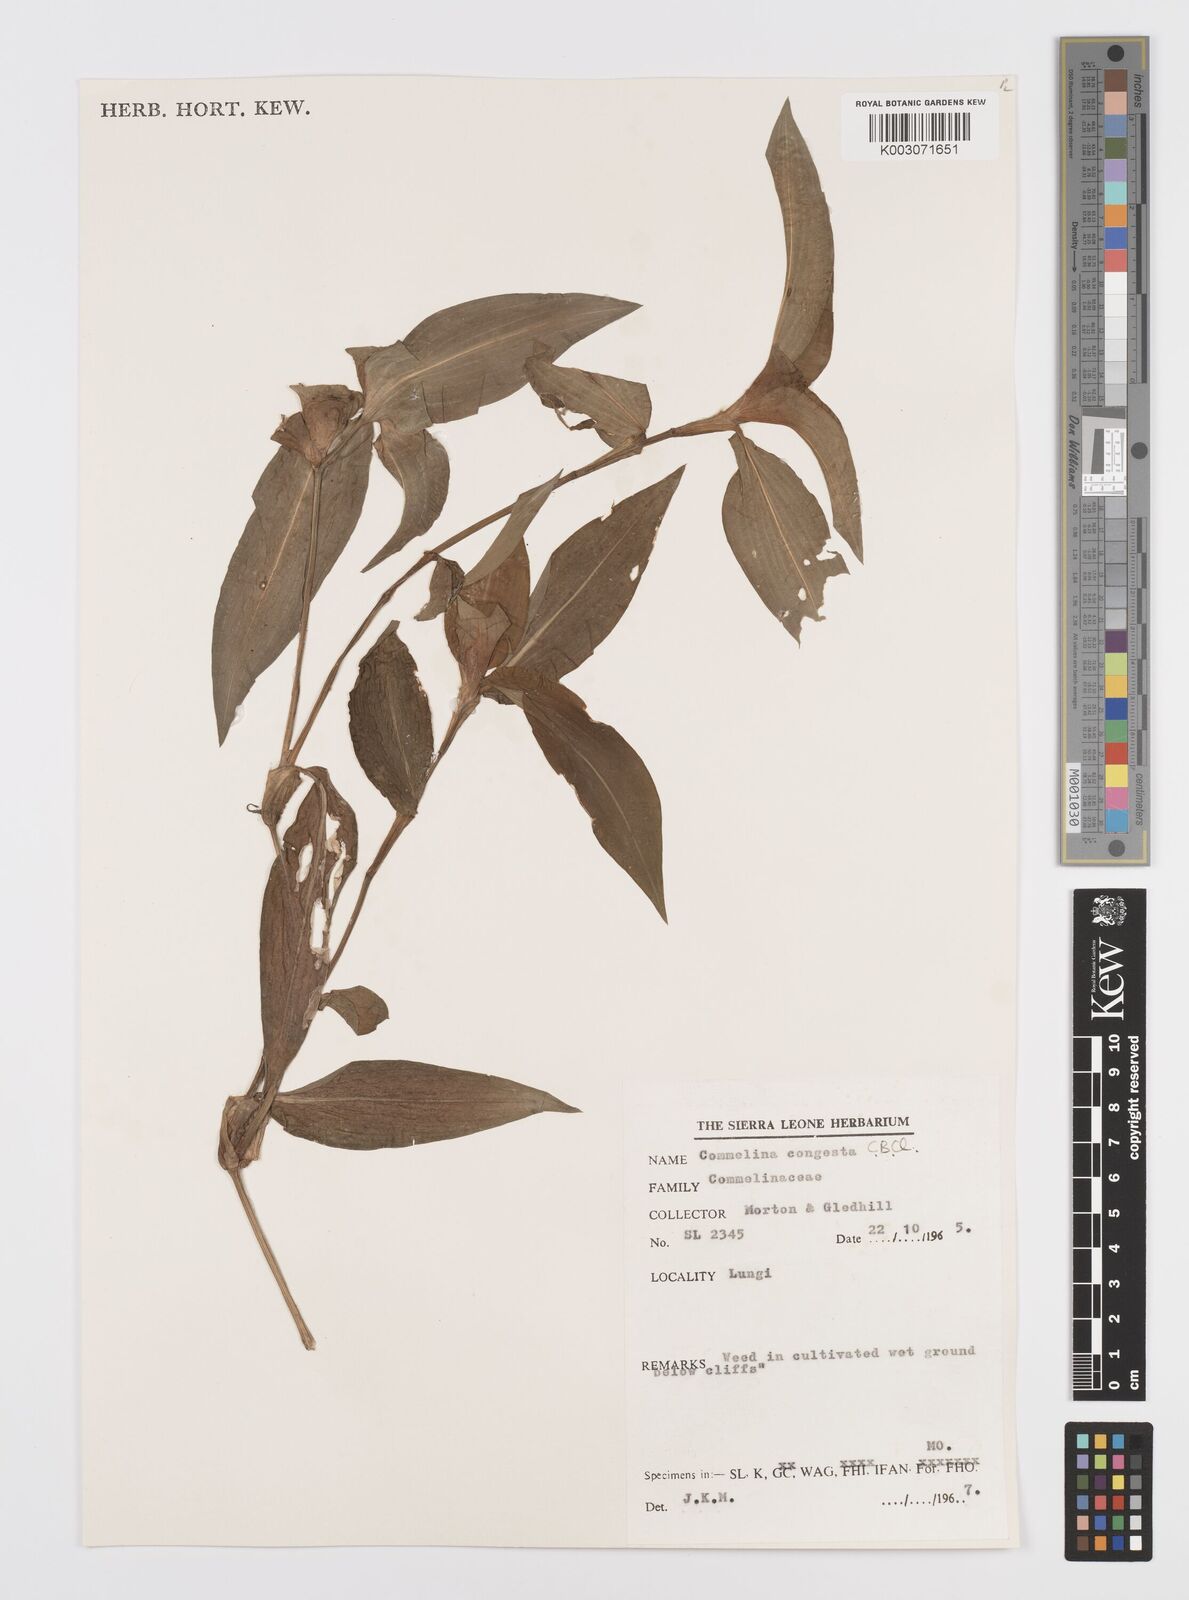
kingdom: Plantae
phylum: Tracheophyta
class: Liliopsida
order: Commelinales
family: Commelinaceae
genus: Commelina
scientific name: Commelina congesta
